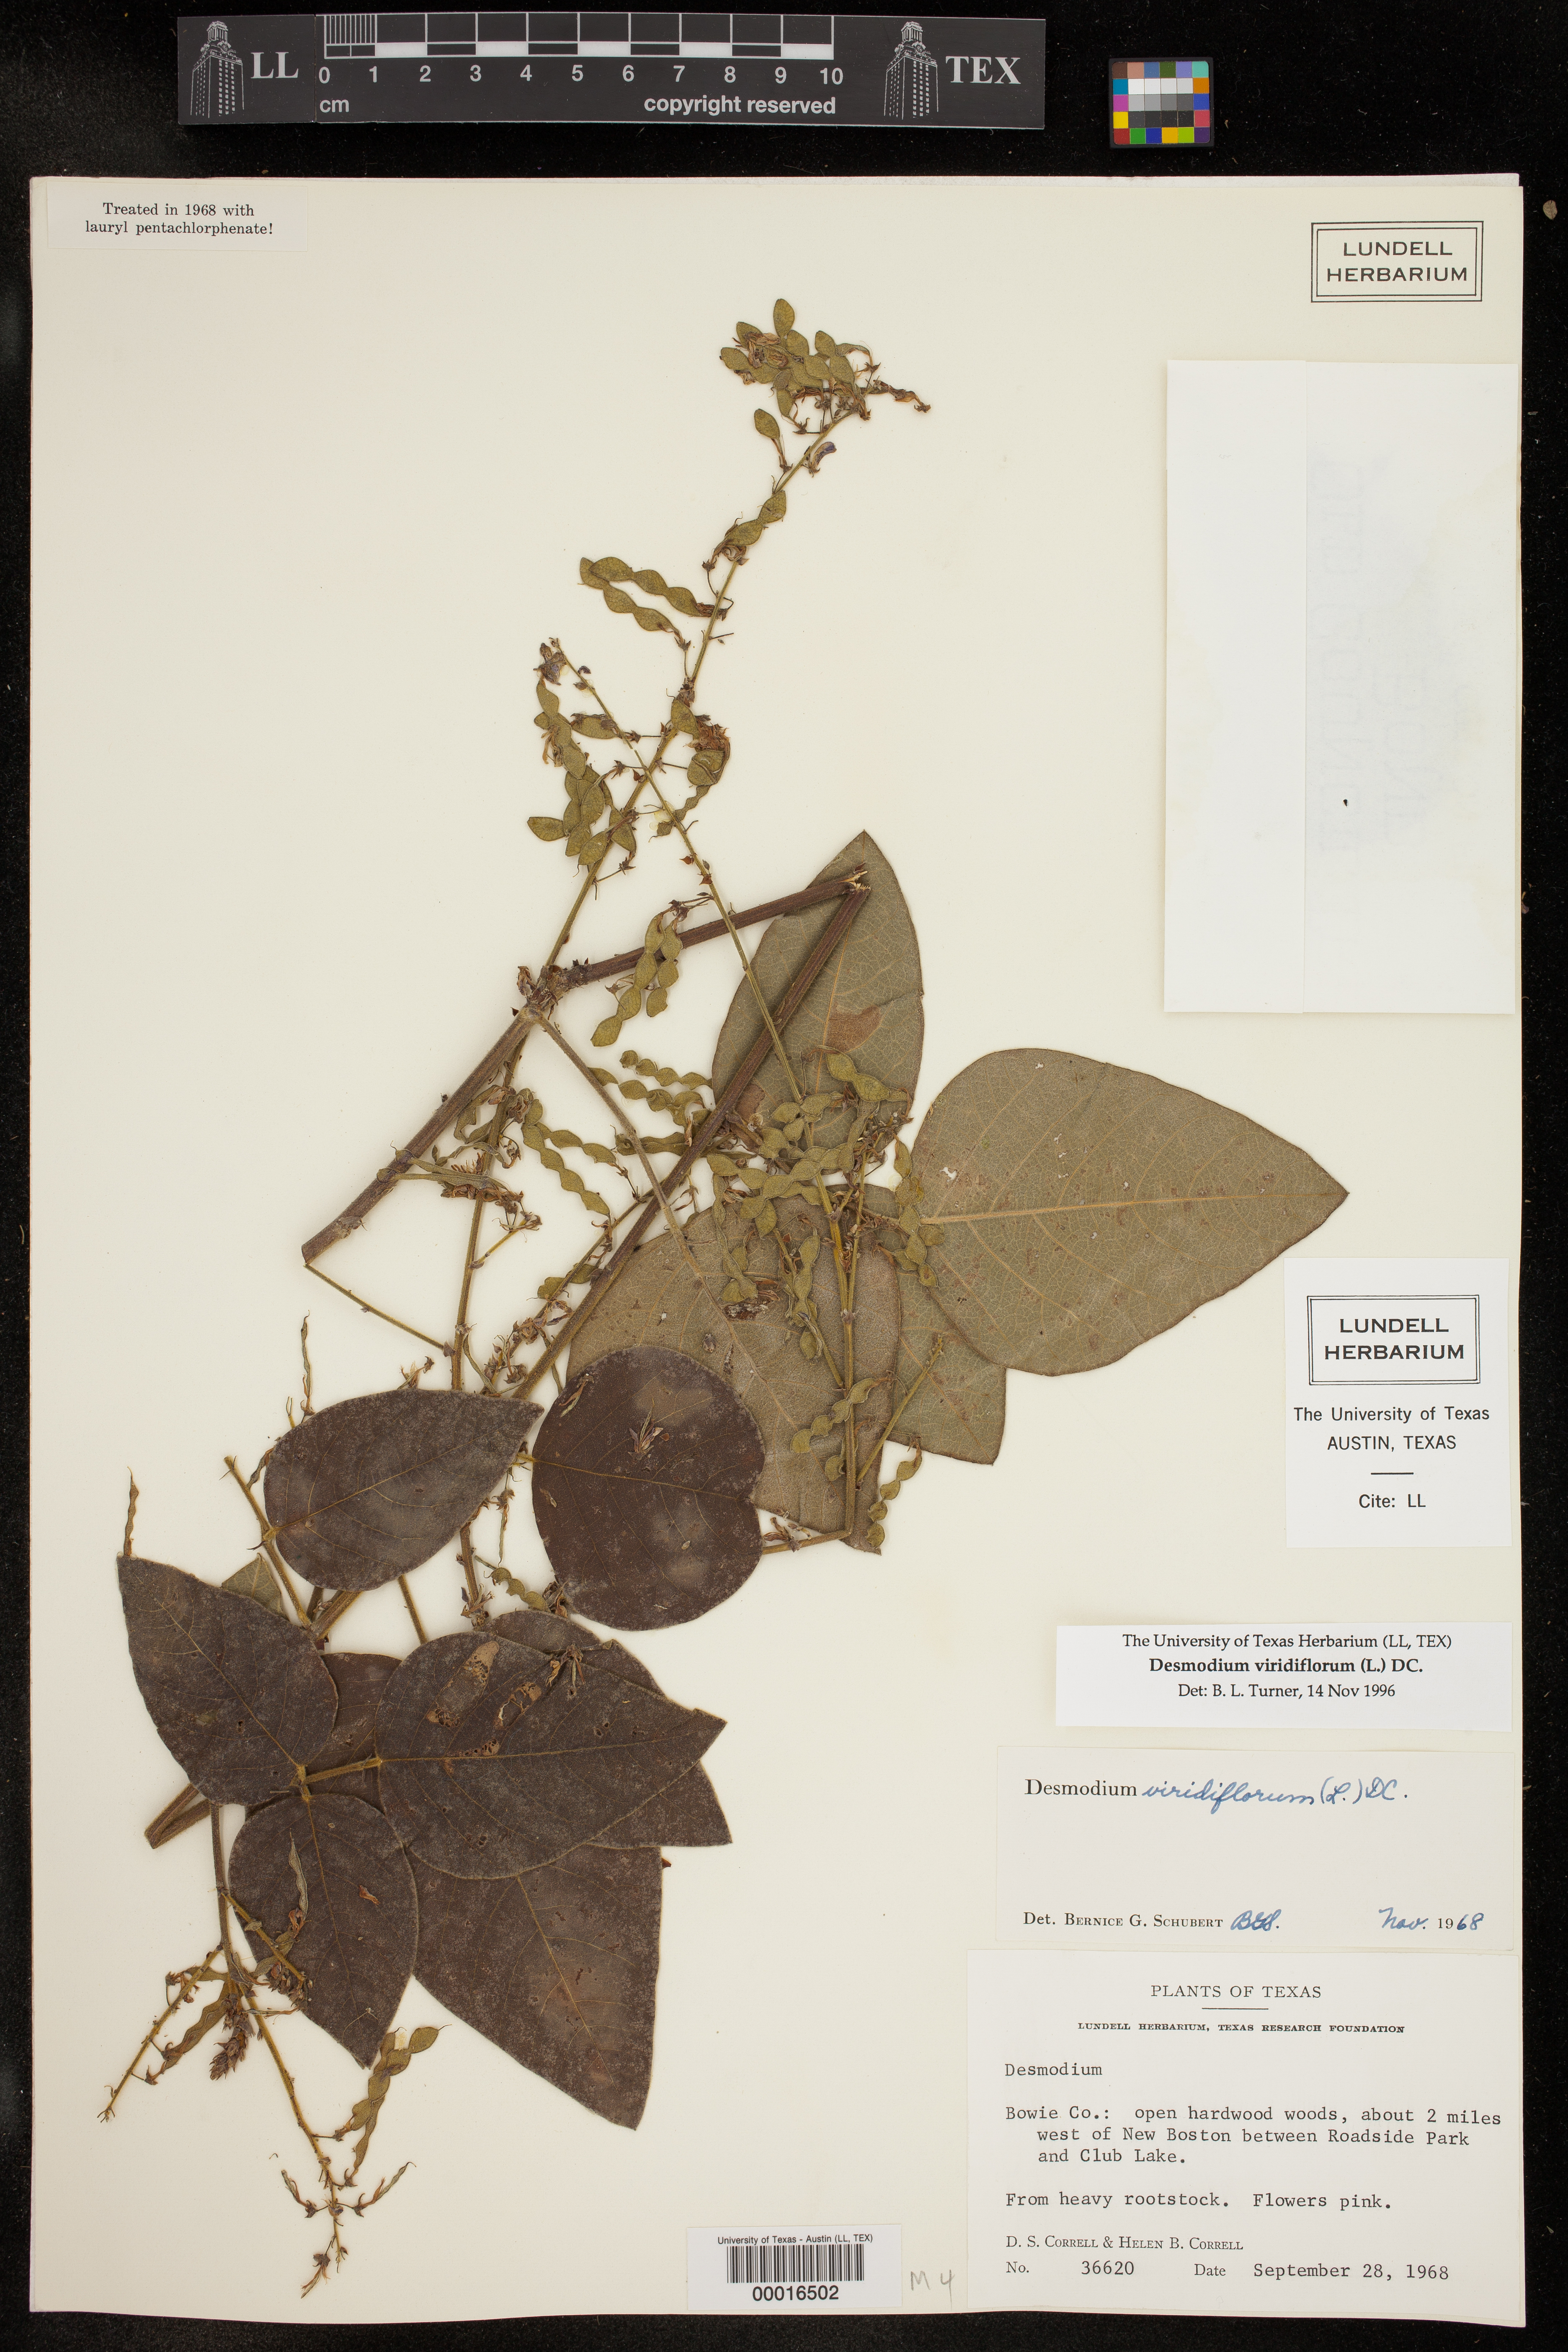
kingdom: Plantae
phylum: Tracheophyta
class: Magnoliopsida
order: Fabales
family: Fabaceae
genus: Desmodium
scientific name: Desmodium viridiflorum
